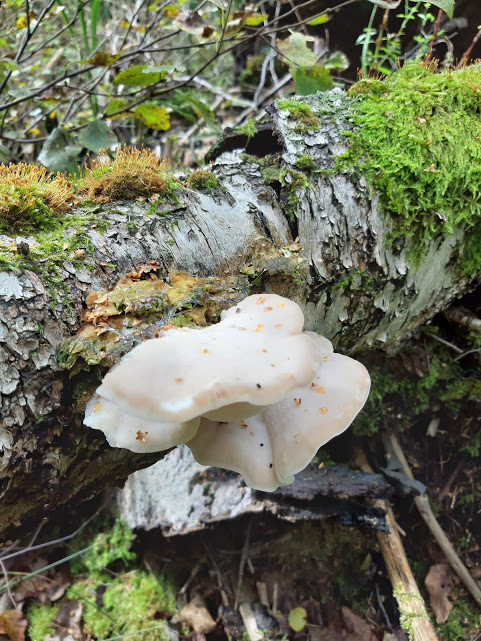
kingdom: Fungi
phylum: Basidiomycota
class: Agaricomycetes
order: Polyporales
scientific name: Polyporales
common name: poresvampordenen
